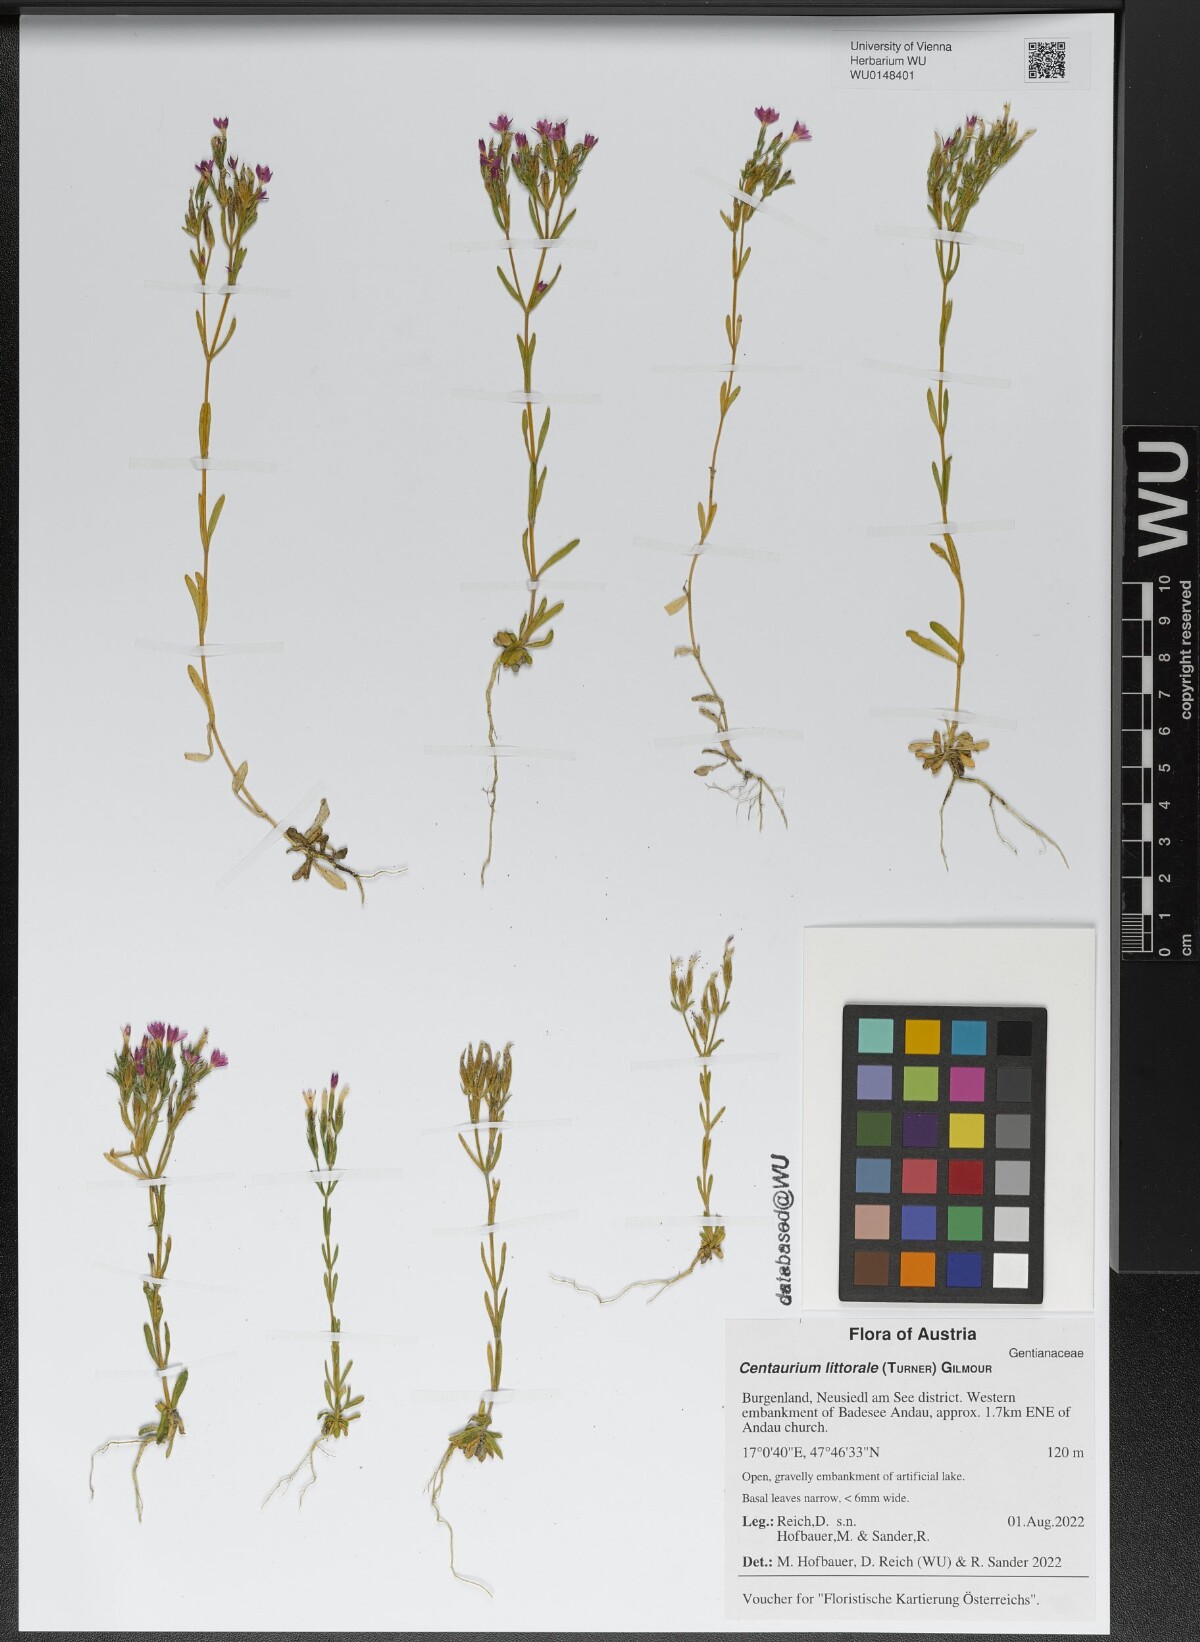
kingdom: Plantae
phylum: Tracheophyta
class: Magnoliopsida
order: Gentianales
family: Gentianaceae
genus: Centaurium
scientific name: Centaurium littorale
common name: Seaside centaury
